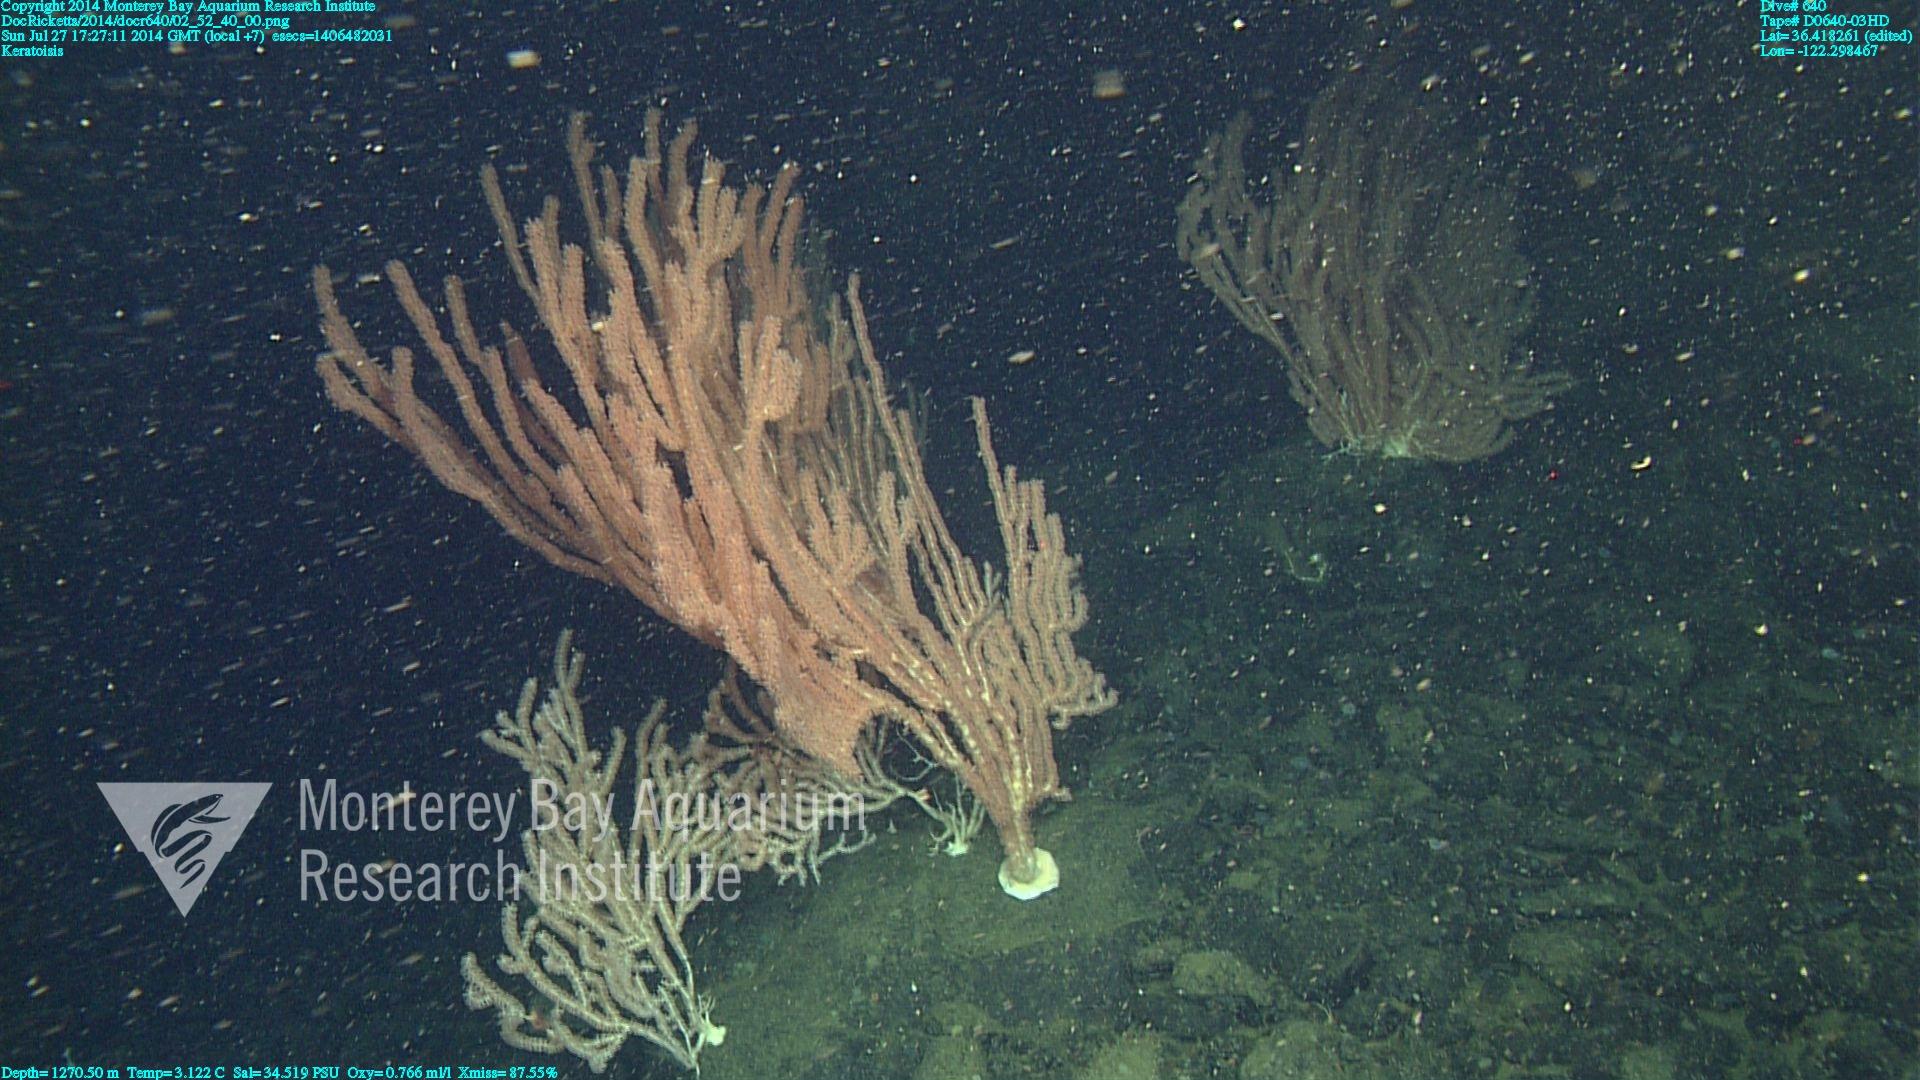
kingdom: Animalia
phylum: Cnidaria
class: Anthozoa
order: Scleralcyonacea
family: Keratoisididae
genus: Keratoisis
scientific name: Keratoisis
